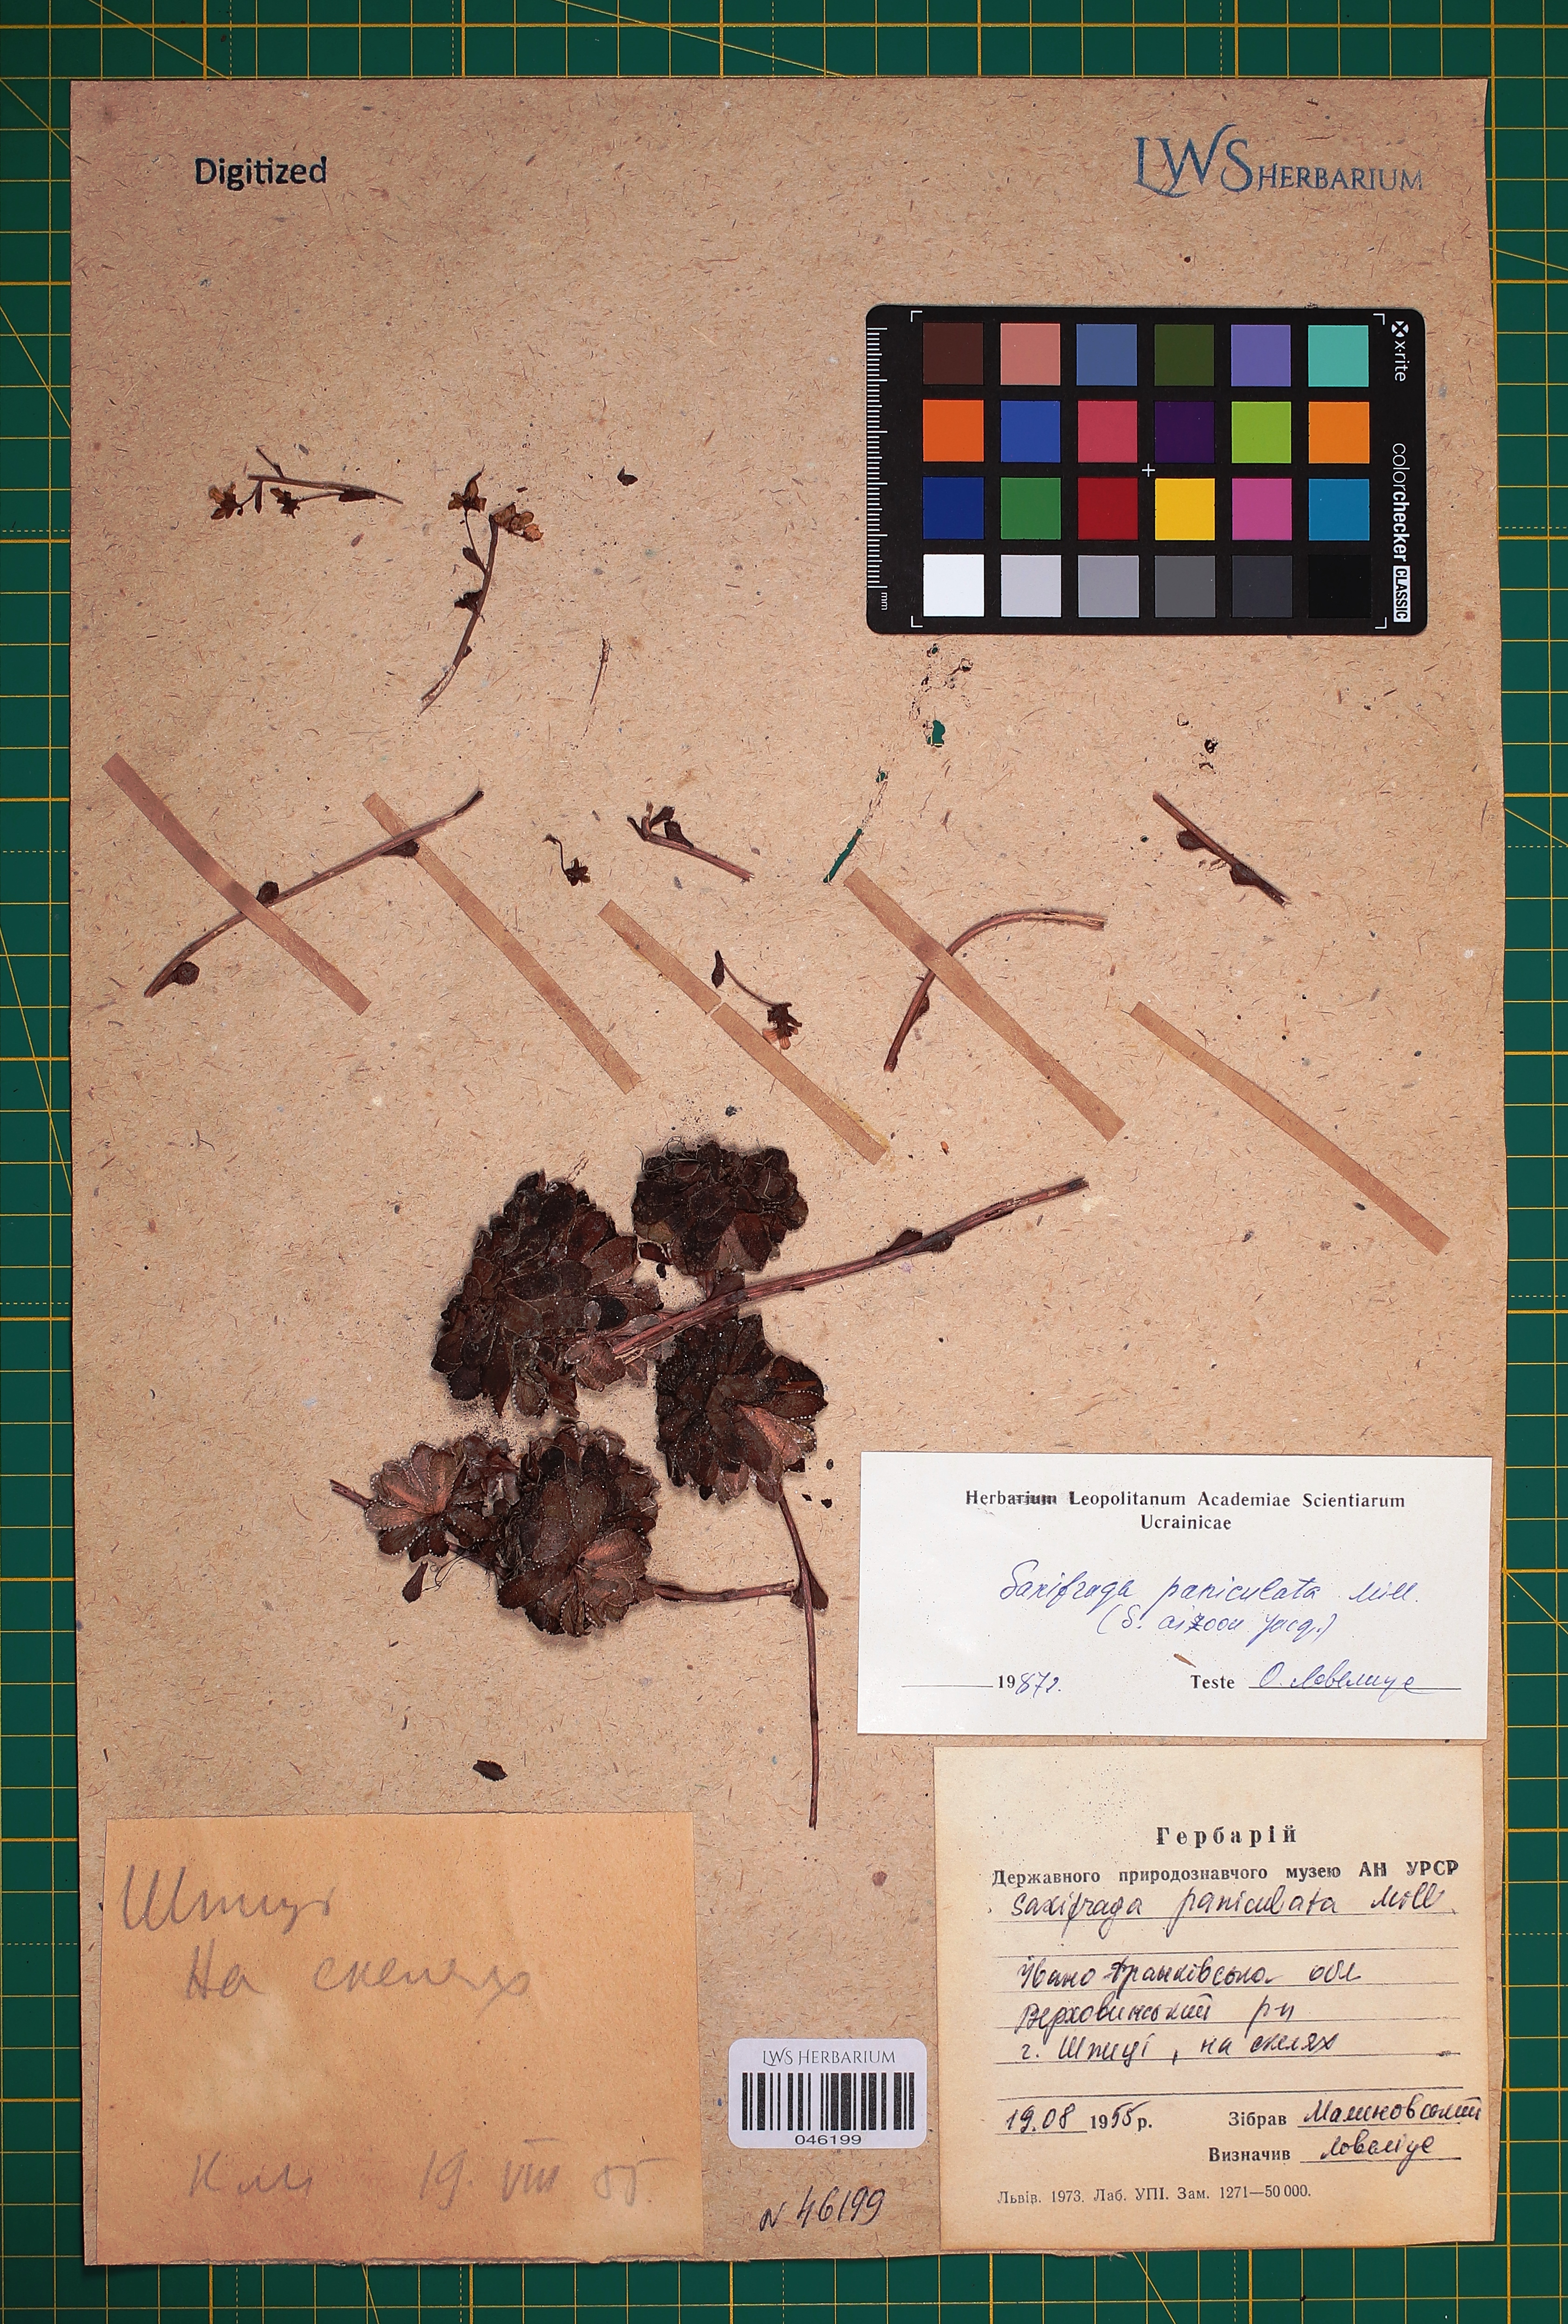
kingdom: Plantae
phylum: Tracheophyta
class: Magnoliopsida
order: Saxifragales
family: Saxifragaceae
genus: Saxifraga
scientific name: Saxifraga paniculata
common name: Livelong saxifrage
